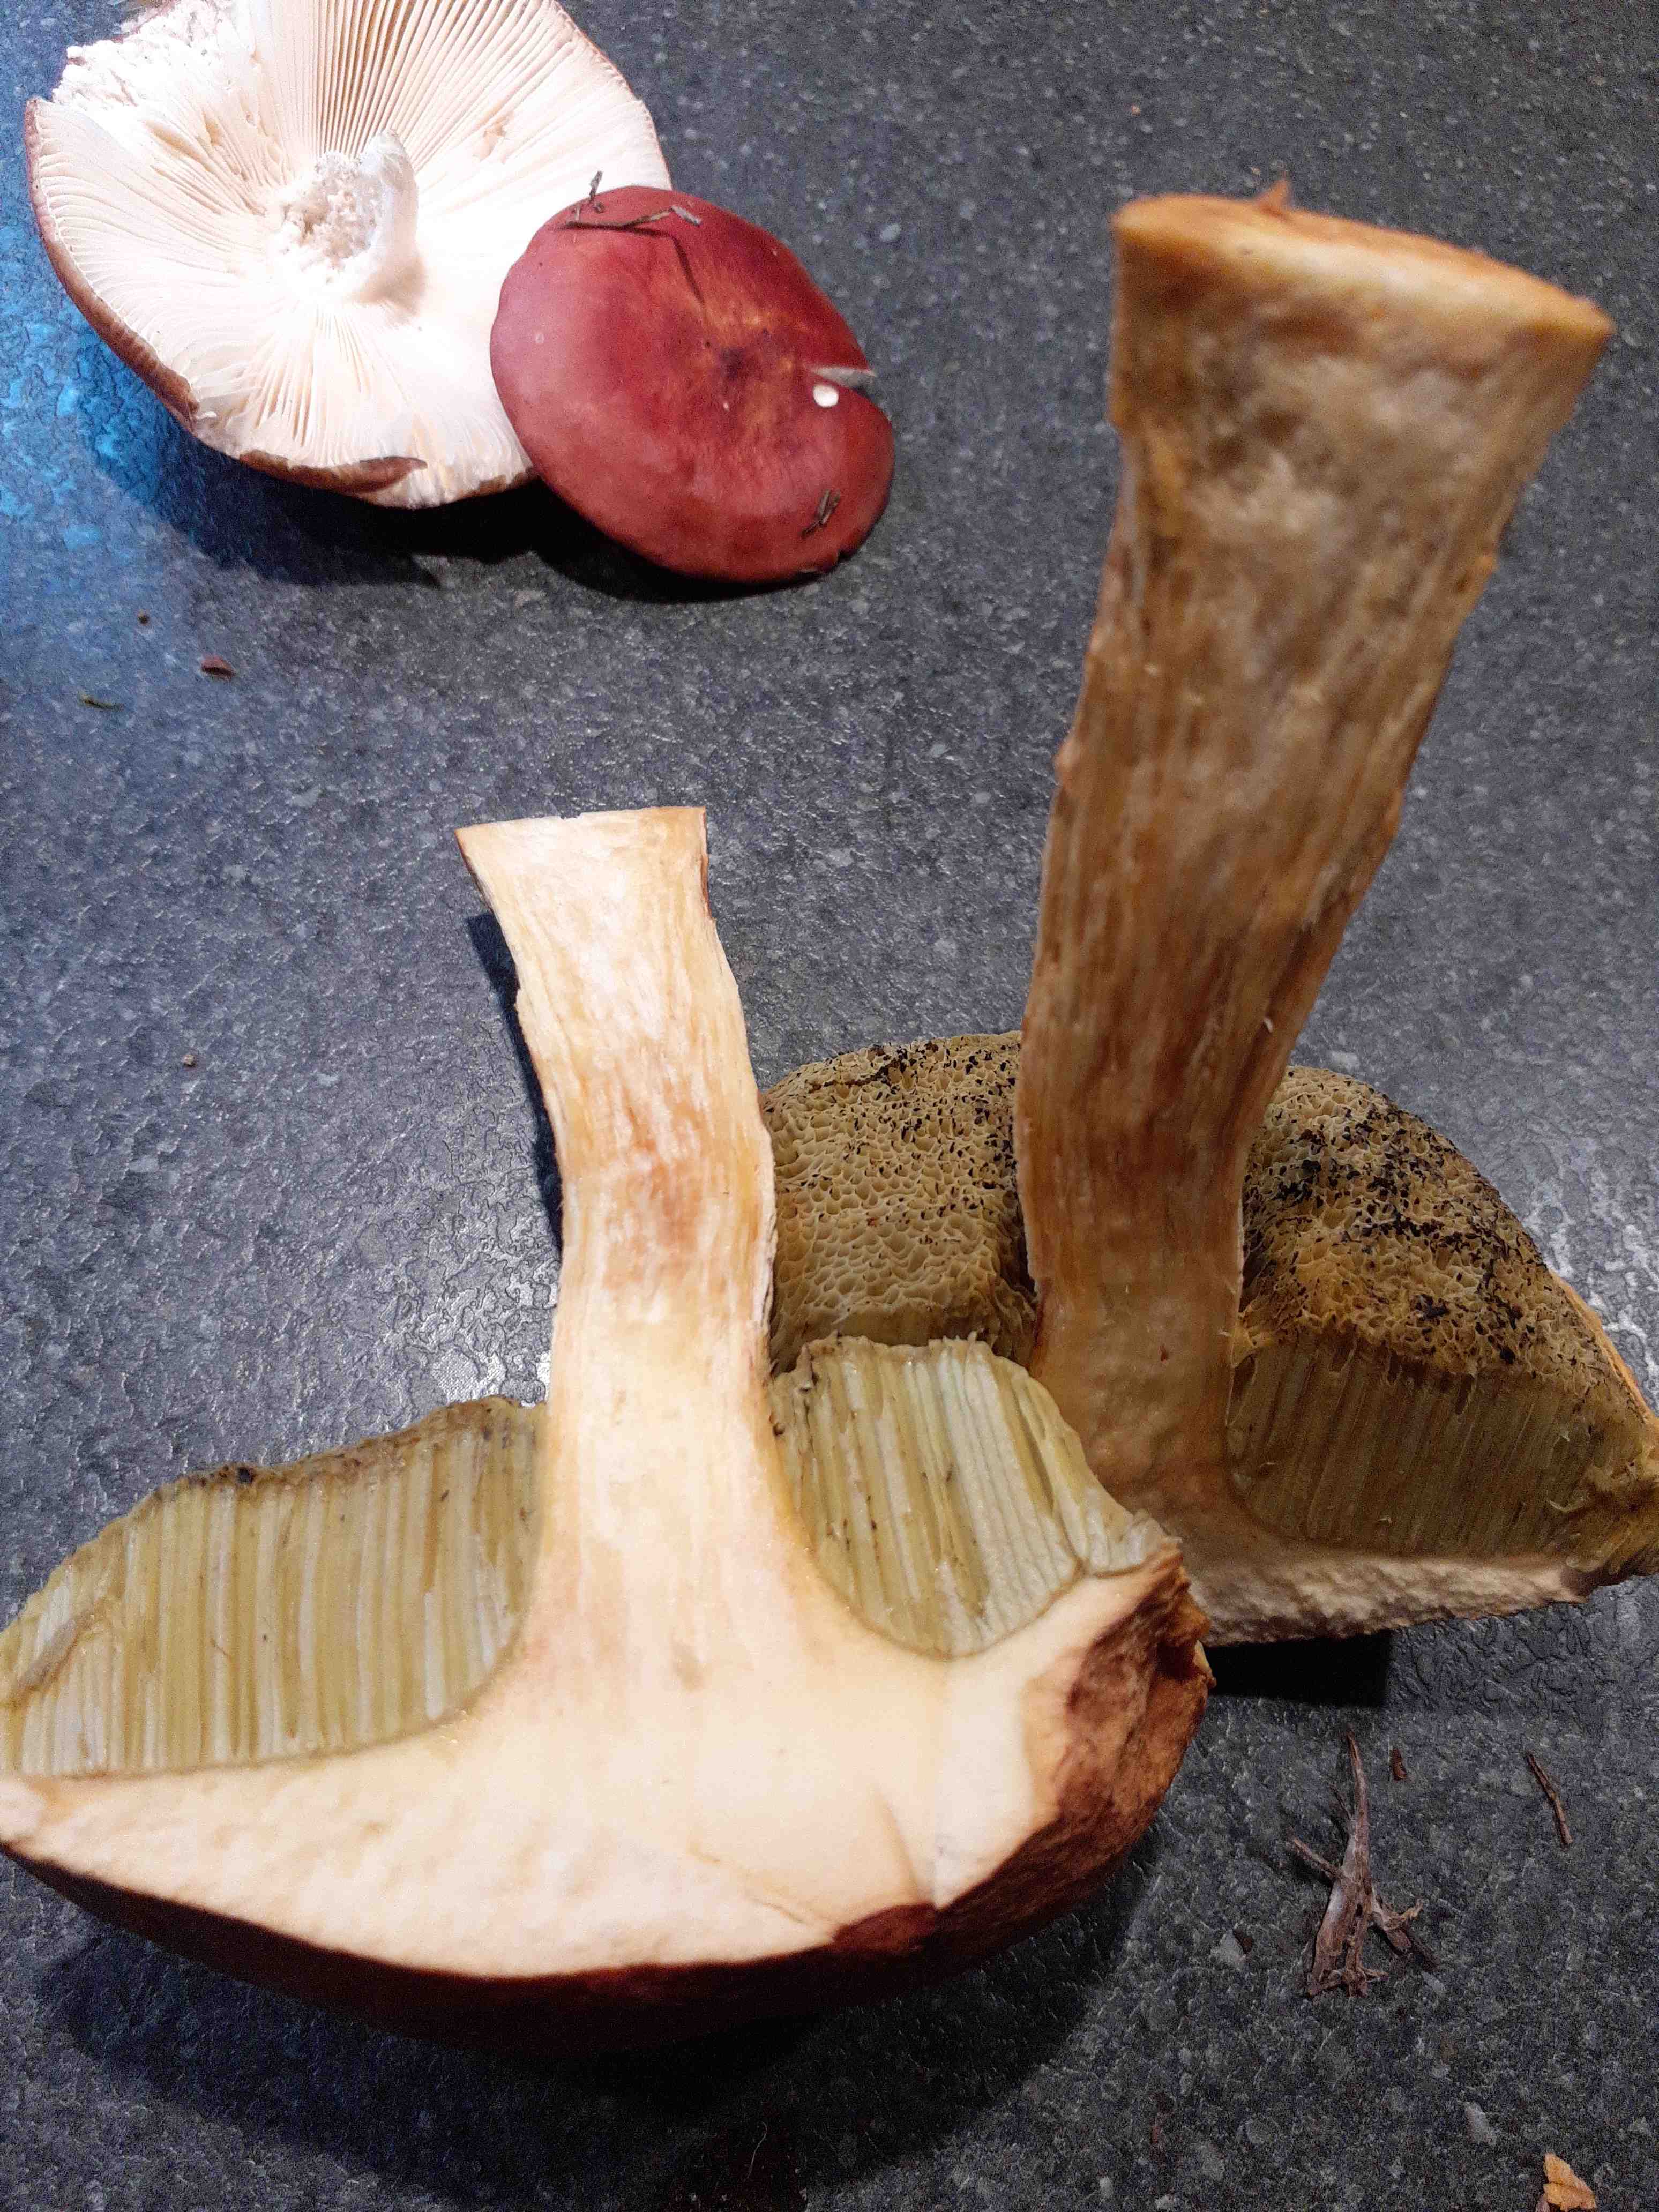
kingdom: Fungi
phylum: Basidiomycota
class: Agaricomycetes
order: Boletales
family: Boletaceae
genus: Aureoboletus
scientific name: Aureoboletus projectellus
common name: ribbestokket rørhat
